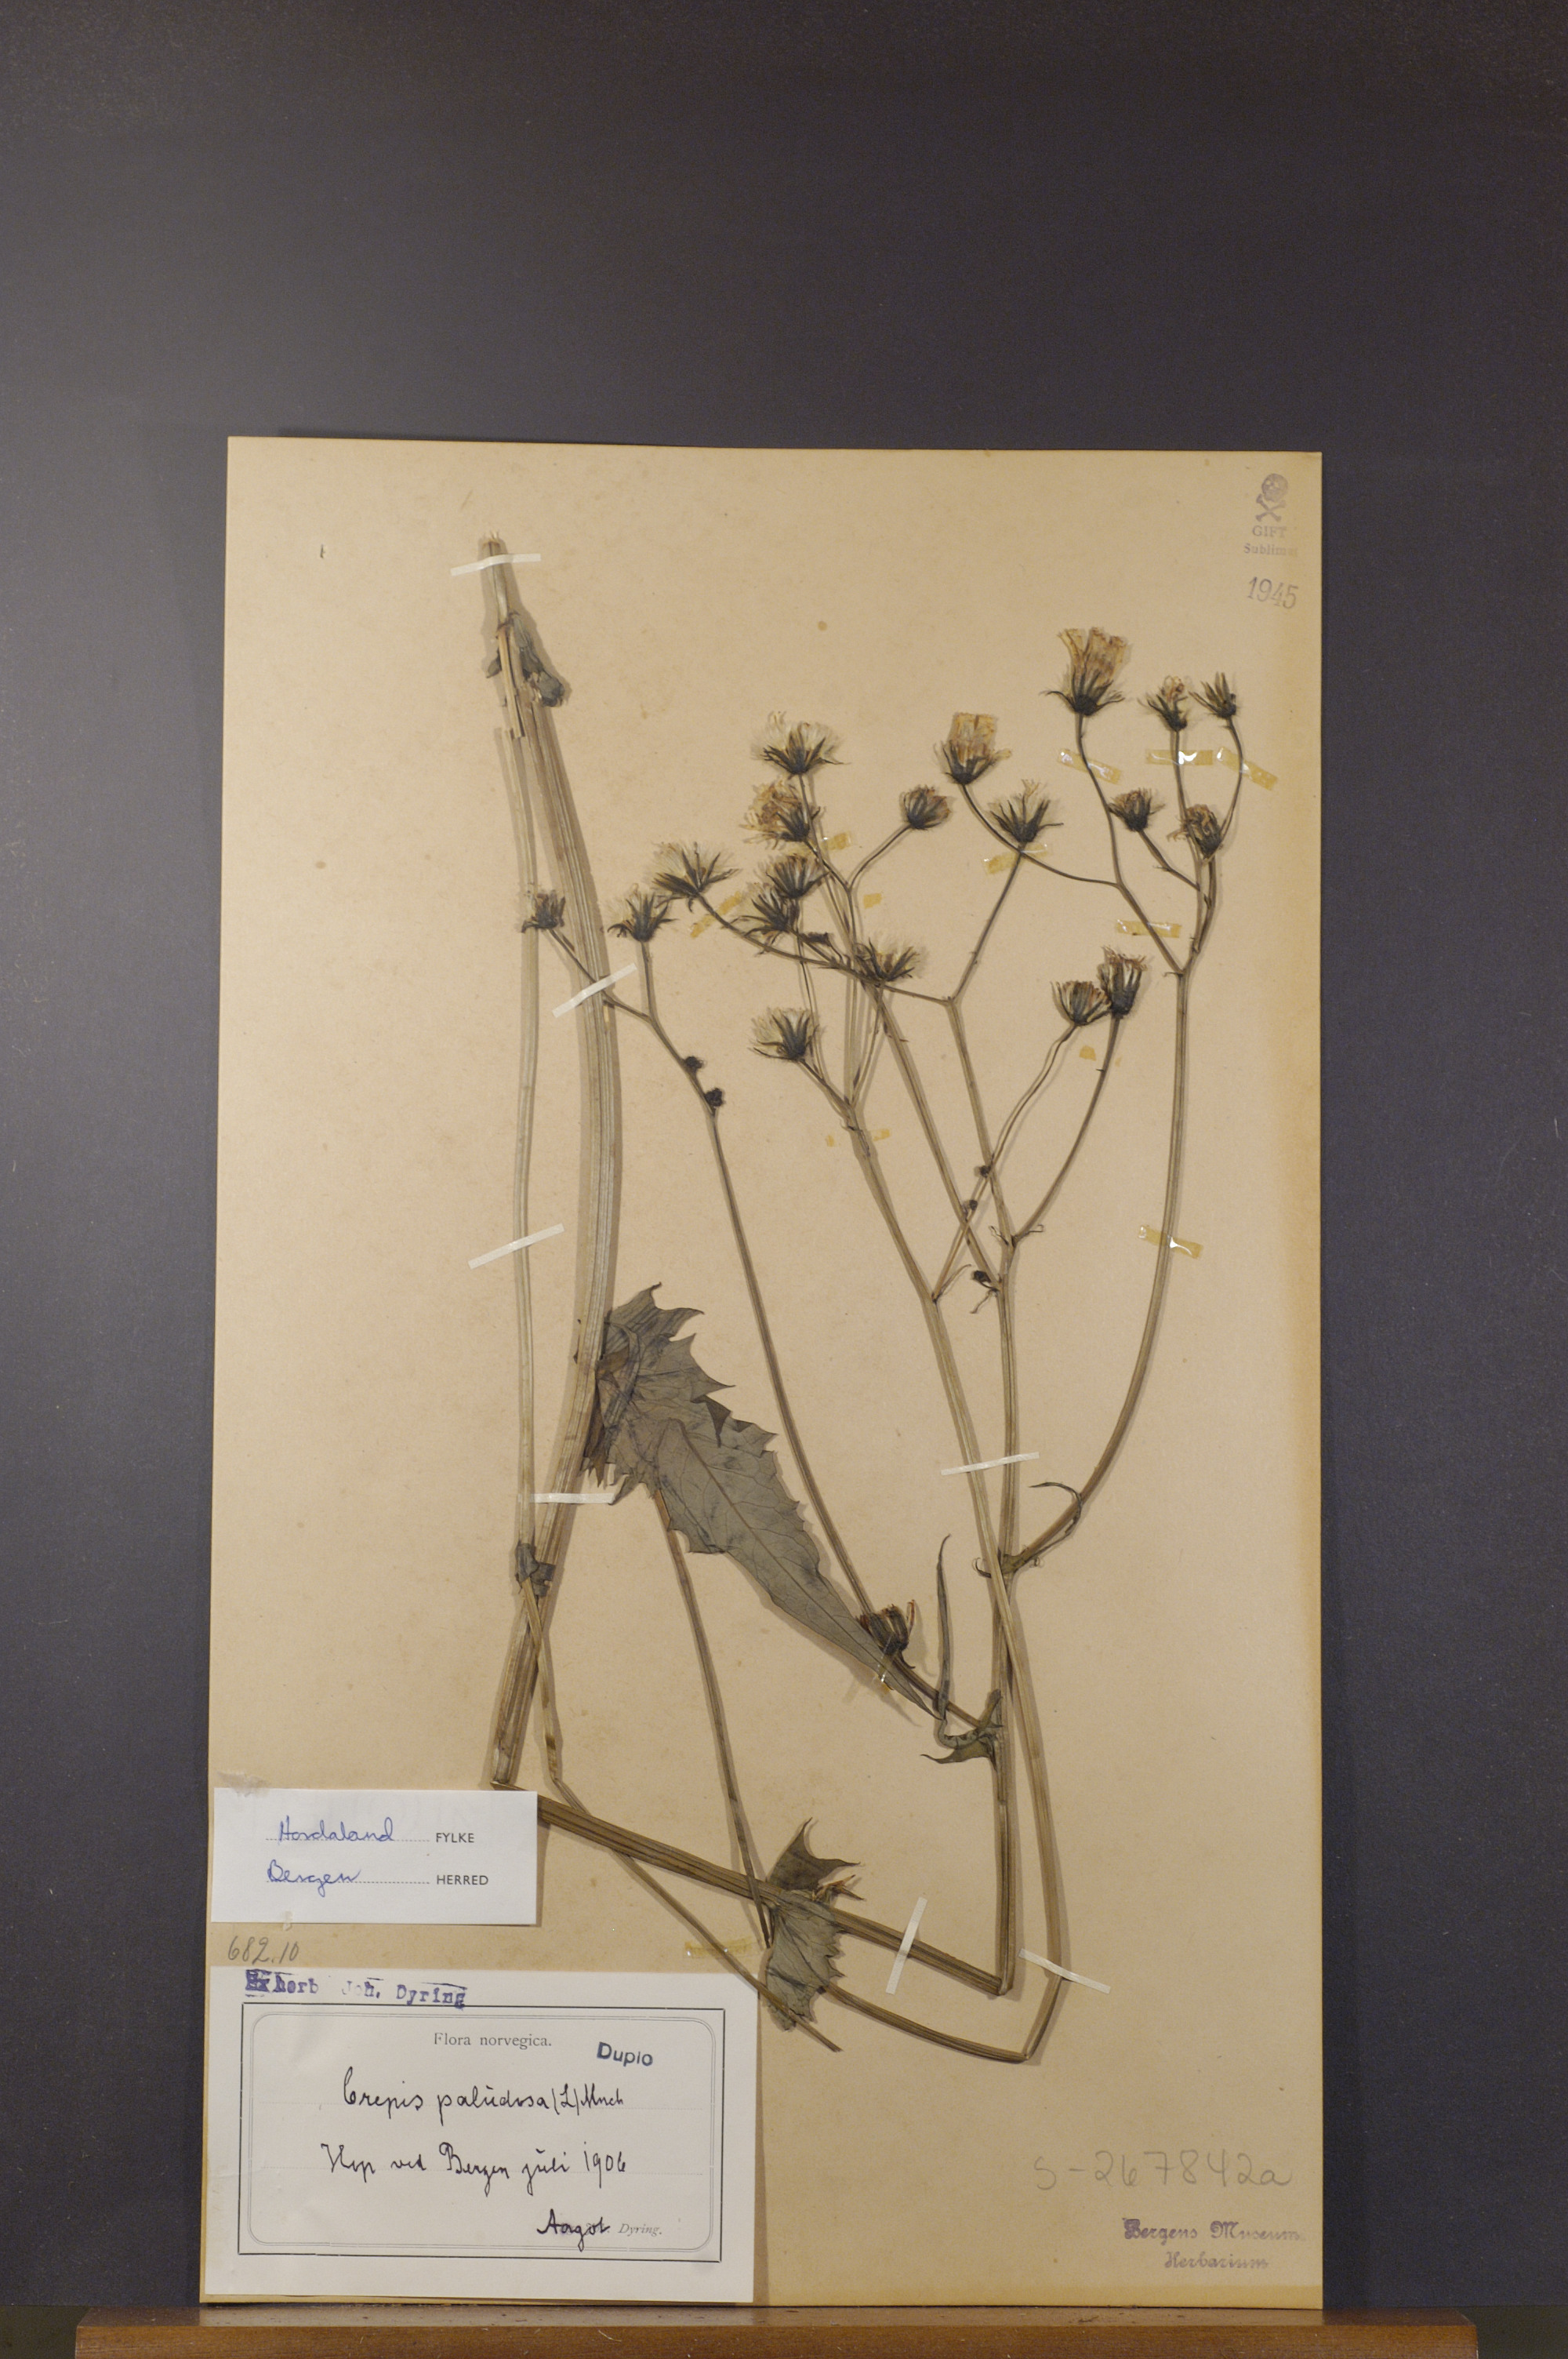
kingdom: Plantae
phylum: Tracheophyta
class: Magnoliopsida
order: Asterales
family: Asteraceae
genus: Crepis
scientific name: Crepis paludosa
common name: Marsh hawk's-beard
